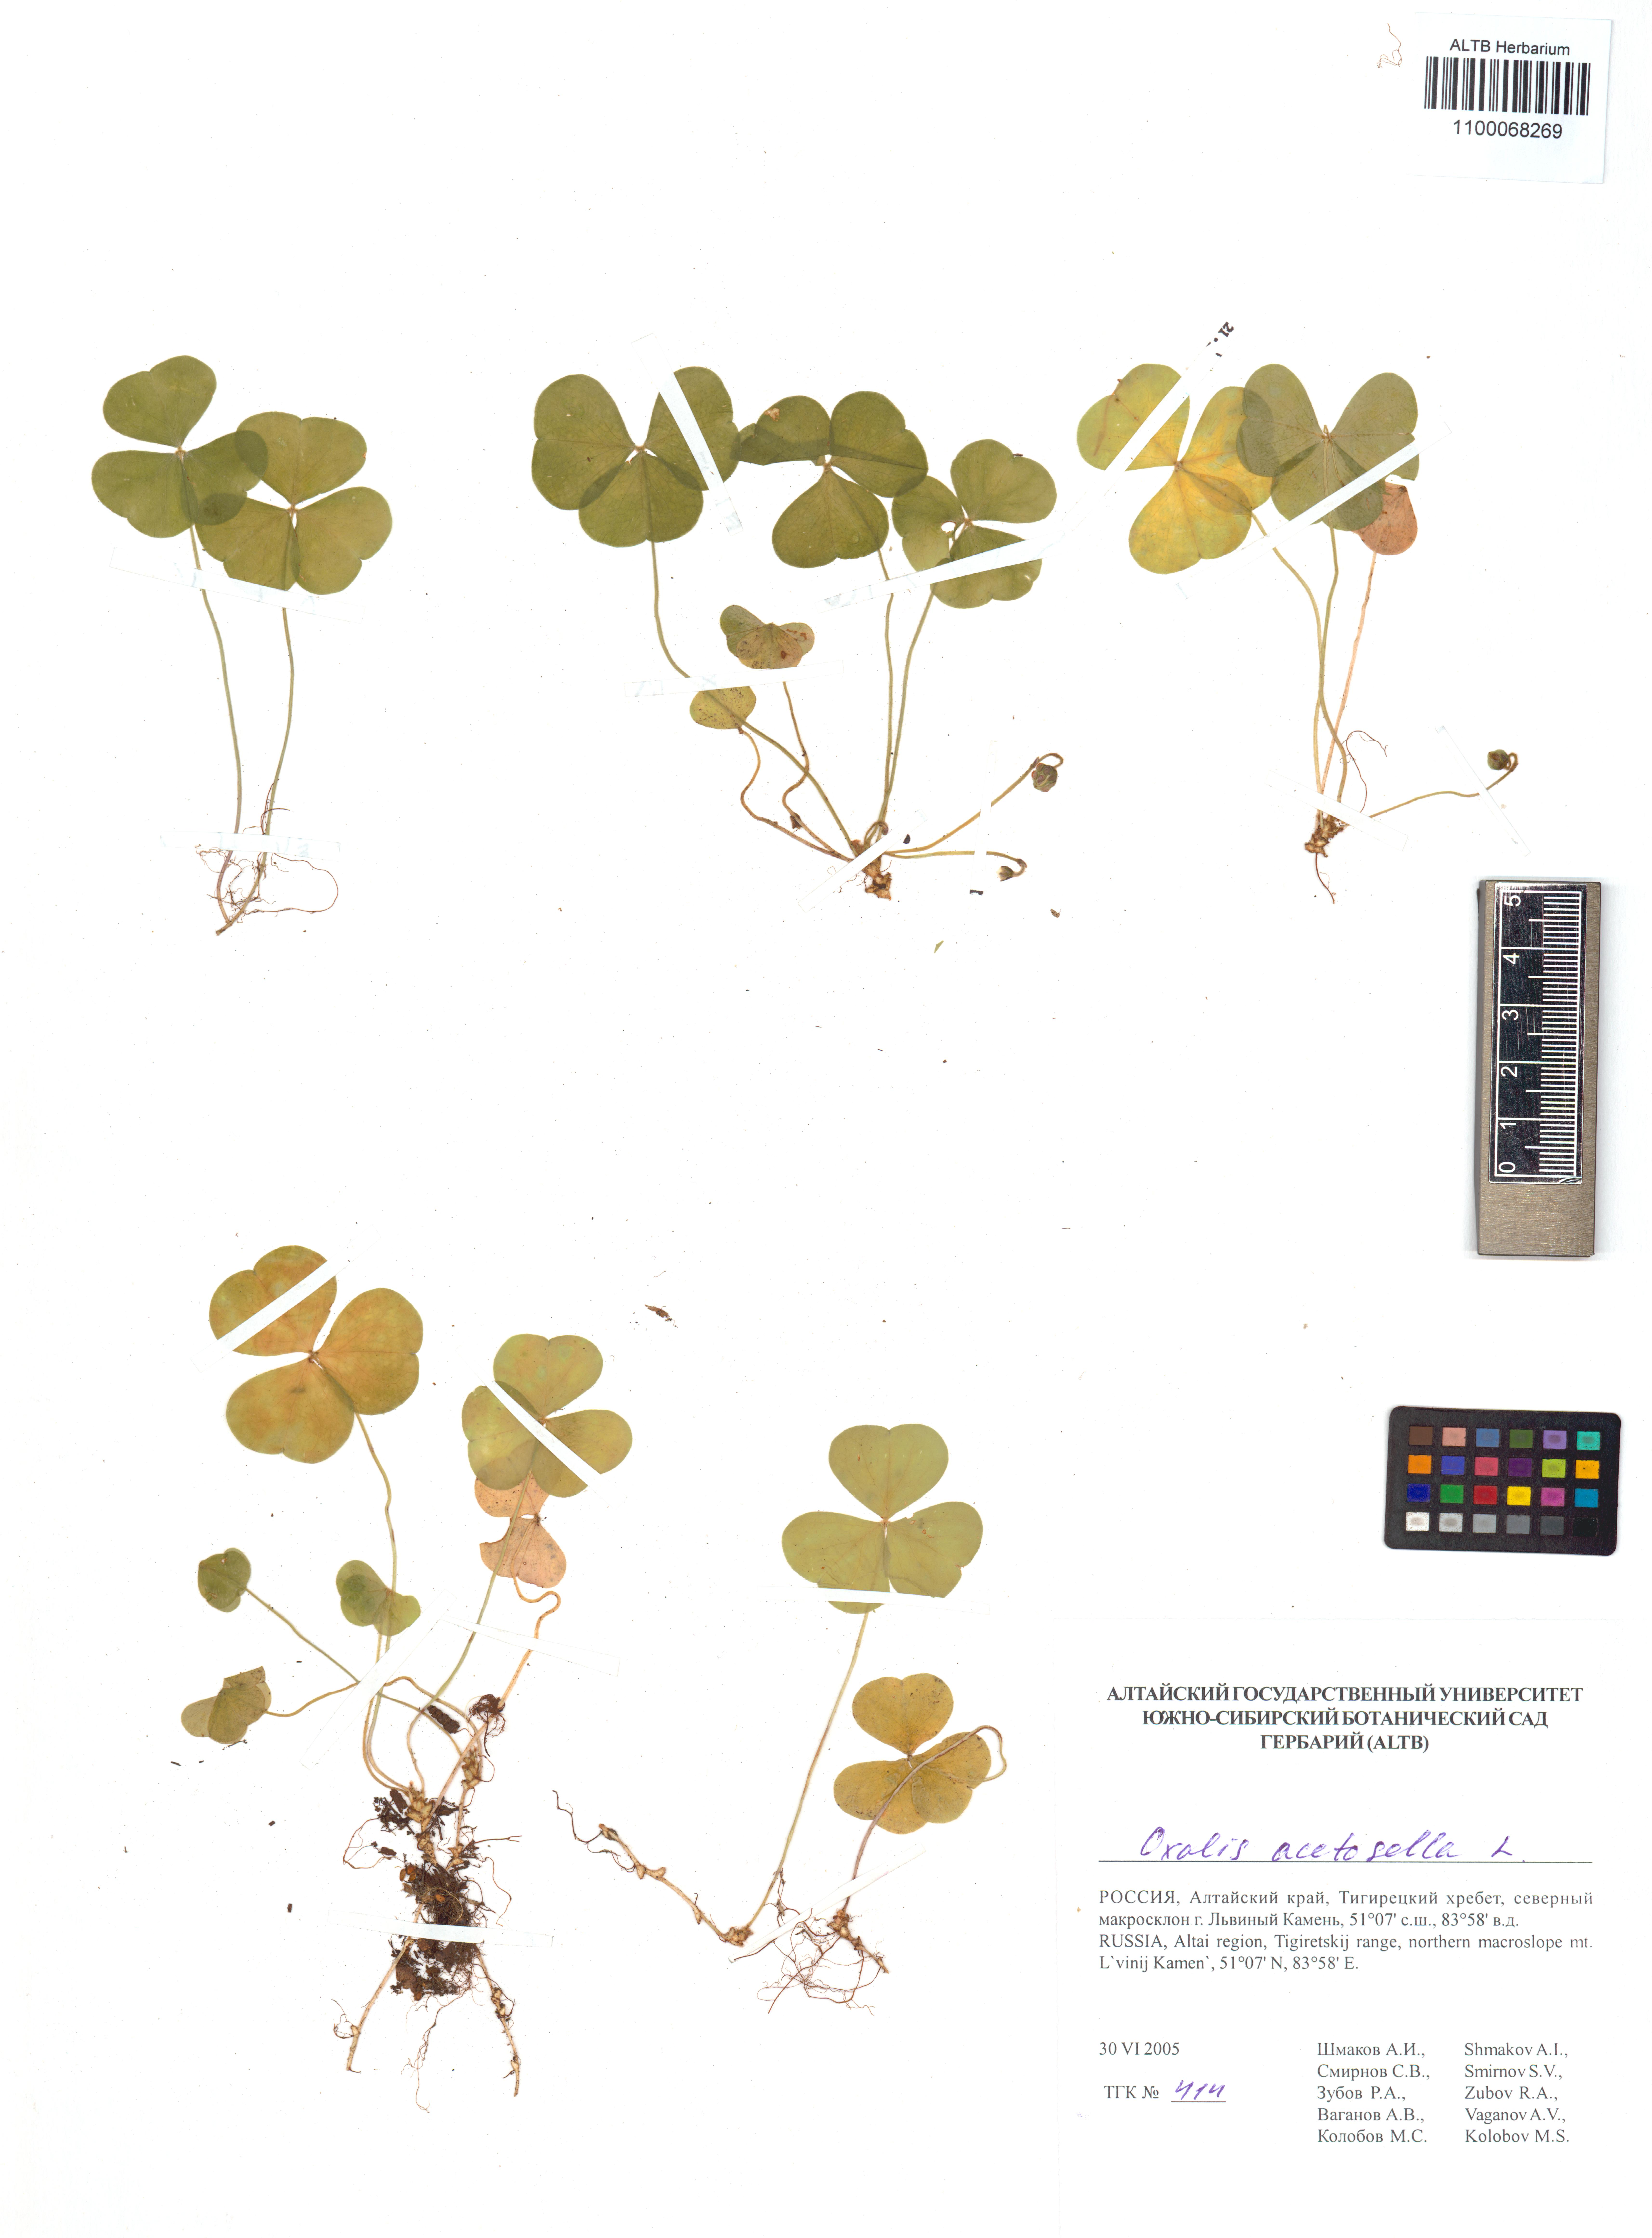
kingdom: Plantae
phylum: Tracheophyta
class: Magnoliopsida
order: Oxalidales
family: Oxalidaceae
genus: Oxalis
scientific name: Oxalis acetosella
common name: Wood-sorrel
